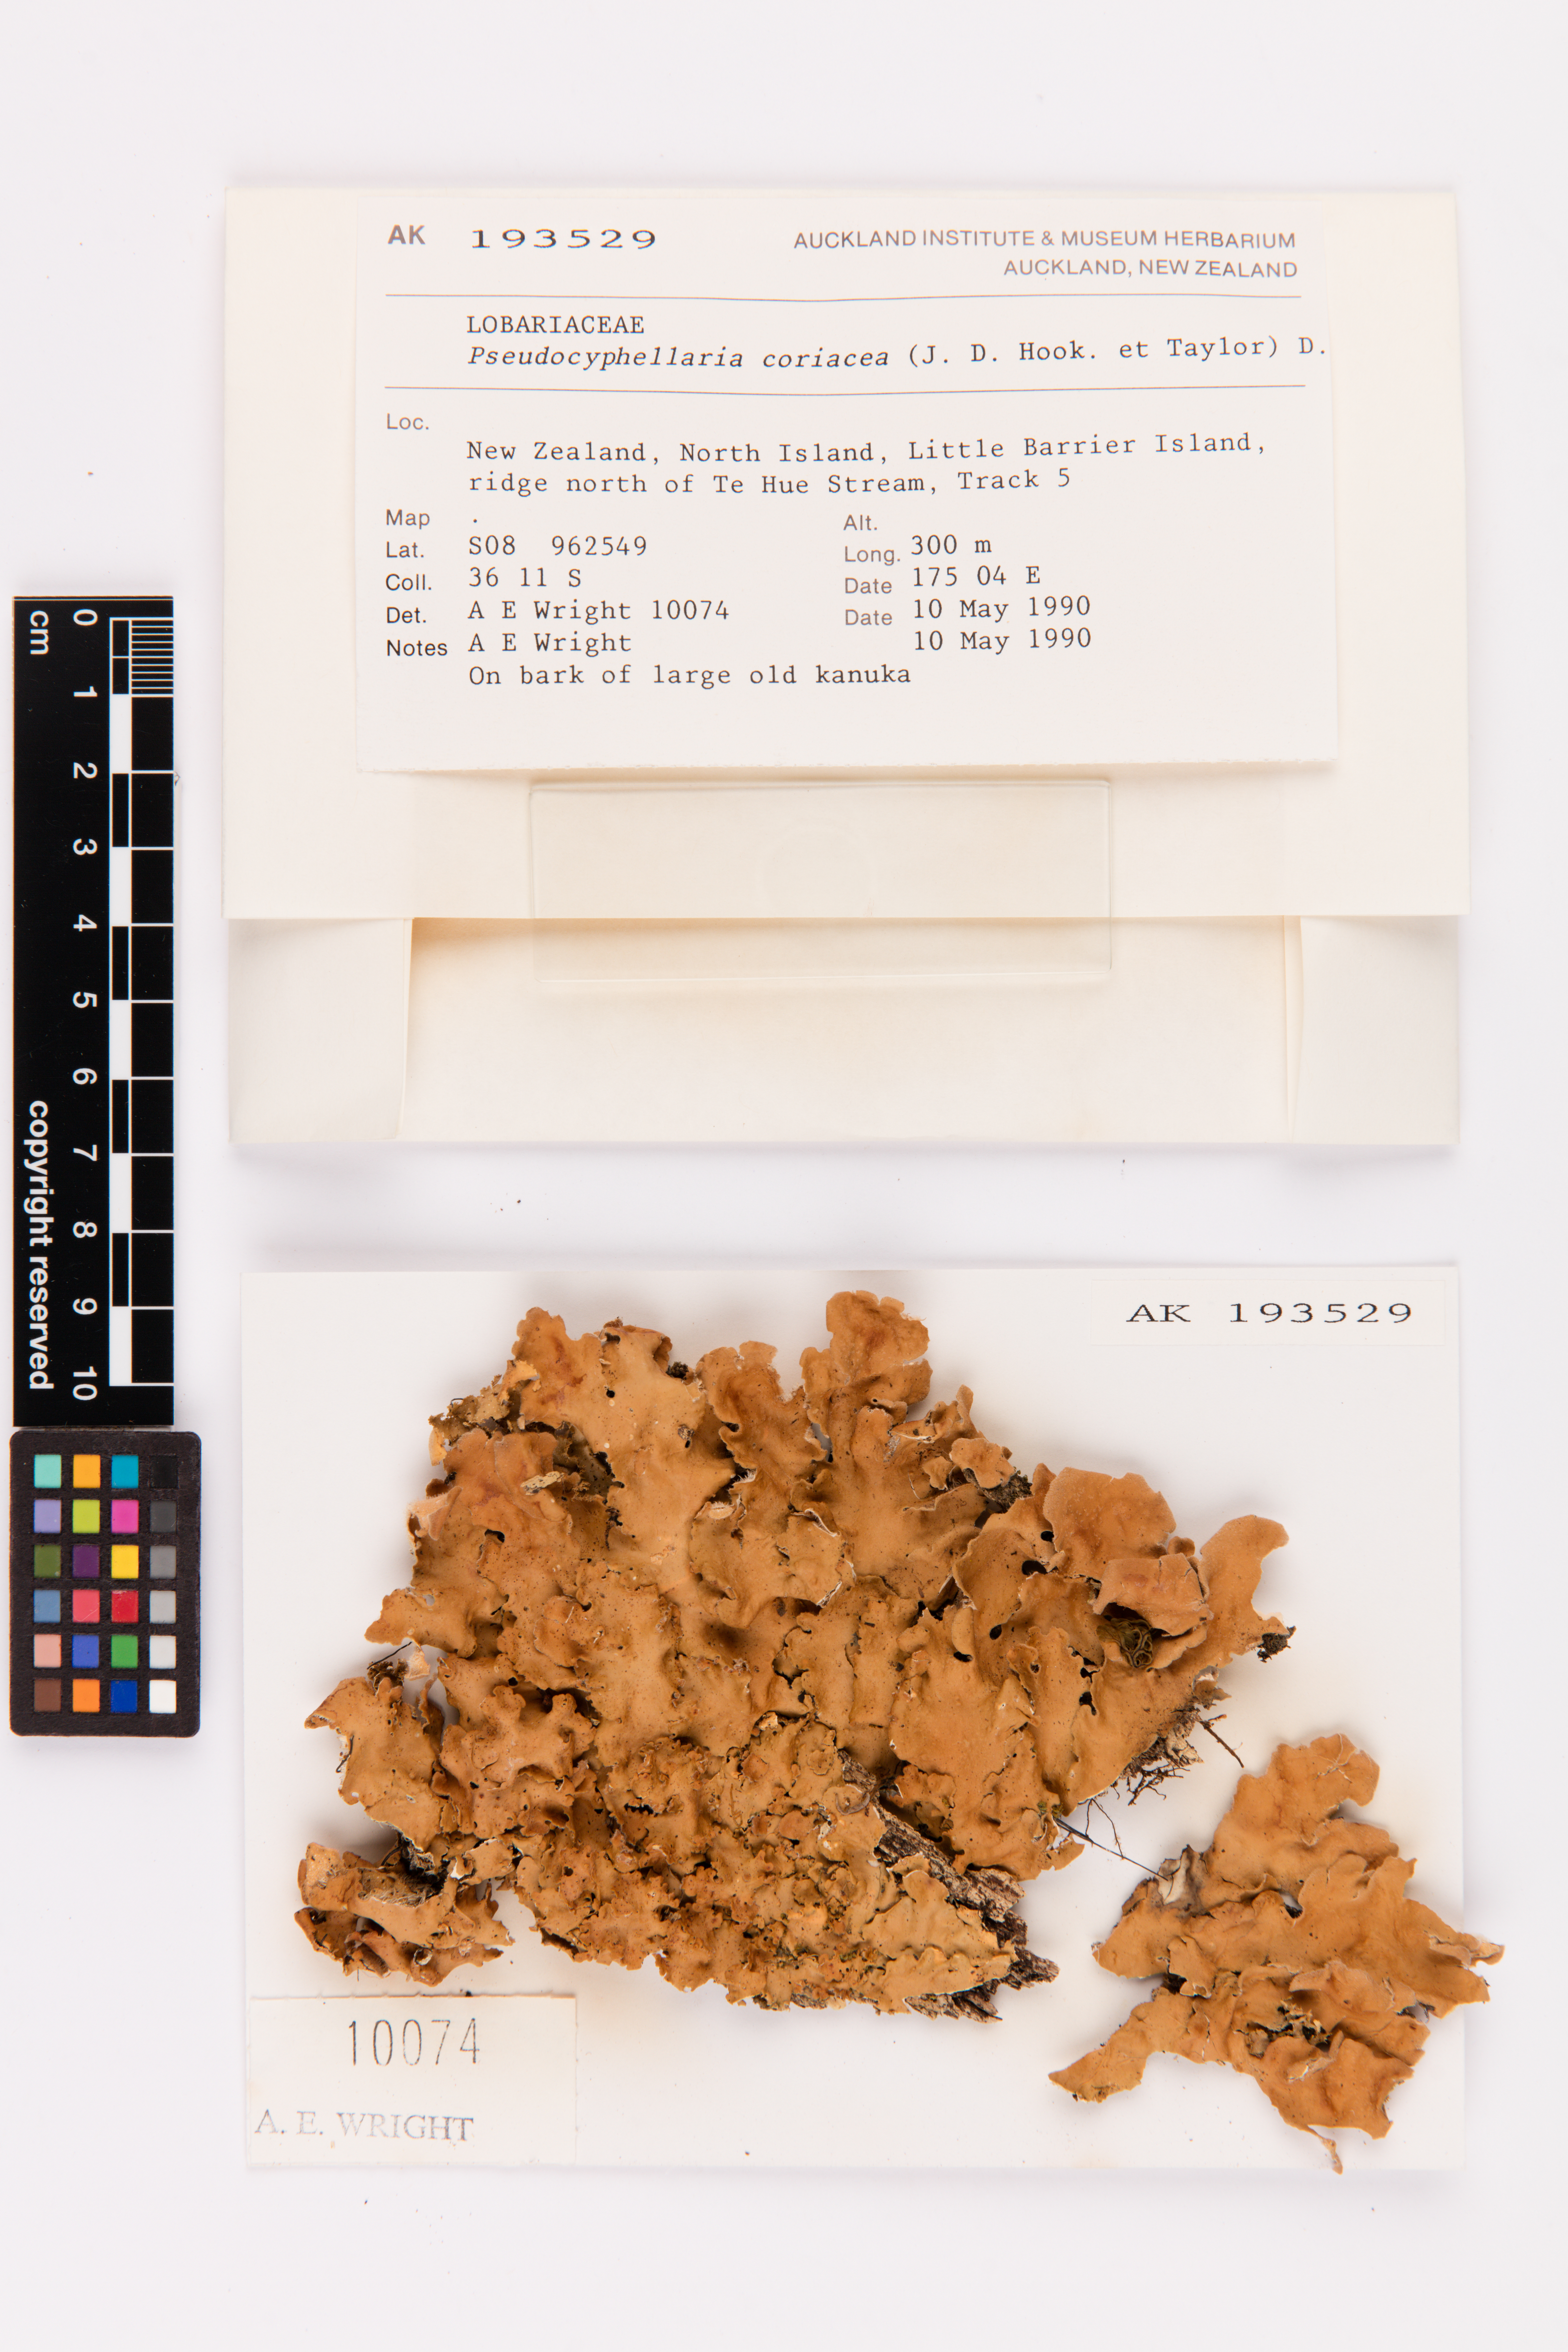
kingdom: Fungi
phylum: Ascomycota
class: Lecanoromycetes
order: Peltigerales
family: Lobariaceae
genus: Pseudocyphellaria
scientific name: Pseudocyphellaria coriacea
